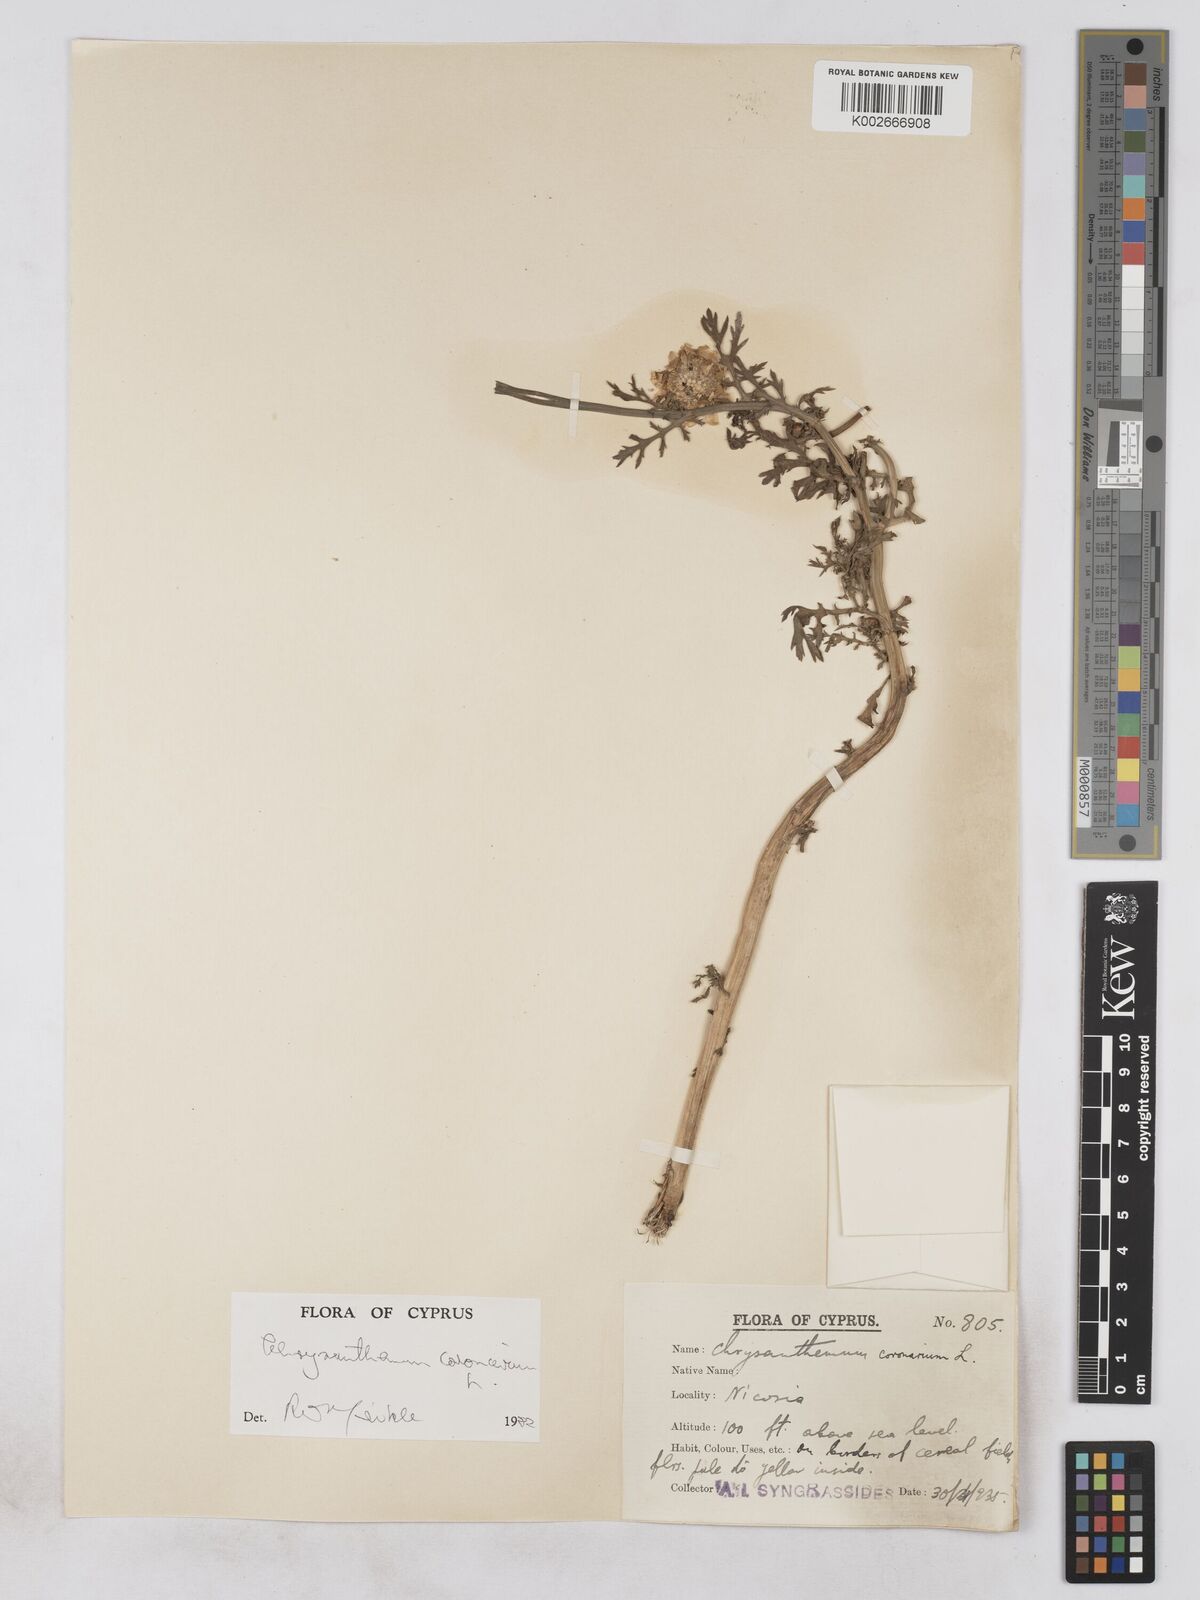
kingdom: Plantae
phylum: Tracheophyta
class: Magnoliopsida
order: Asterales
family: Asteraceae
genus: Glebionis
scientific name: Glebionis coronaria
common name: Crowndaisy
